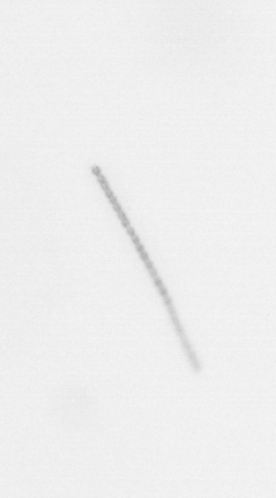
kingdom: Chromista
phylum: Ochrophyta
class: Bacillariophyceae
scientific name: Bacillariophyceae
